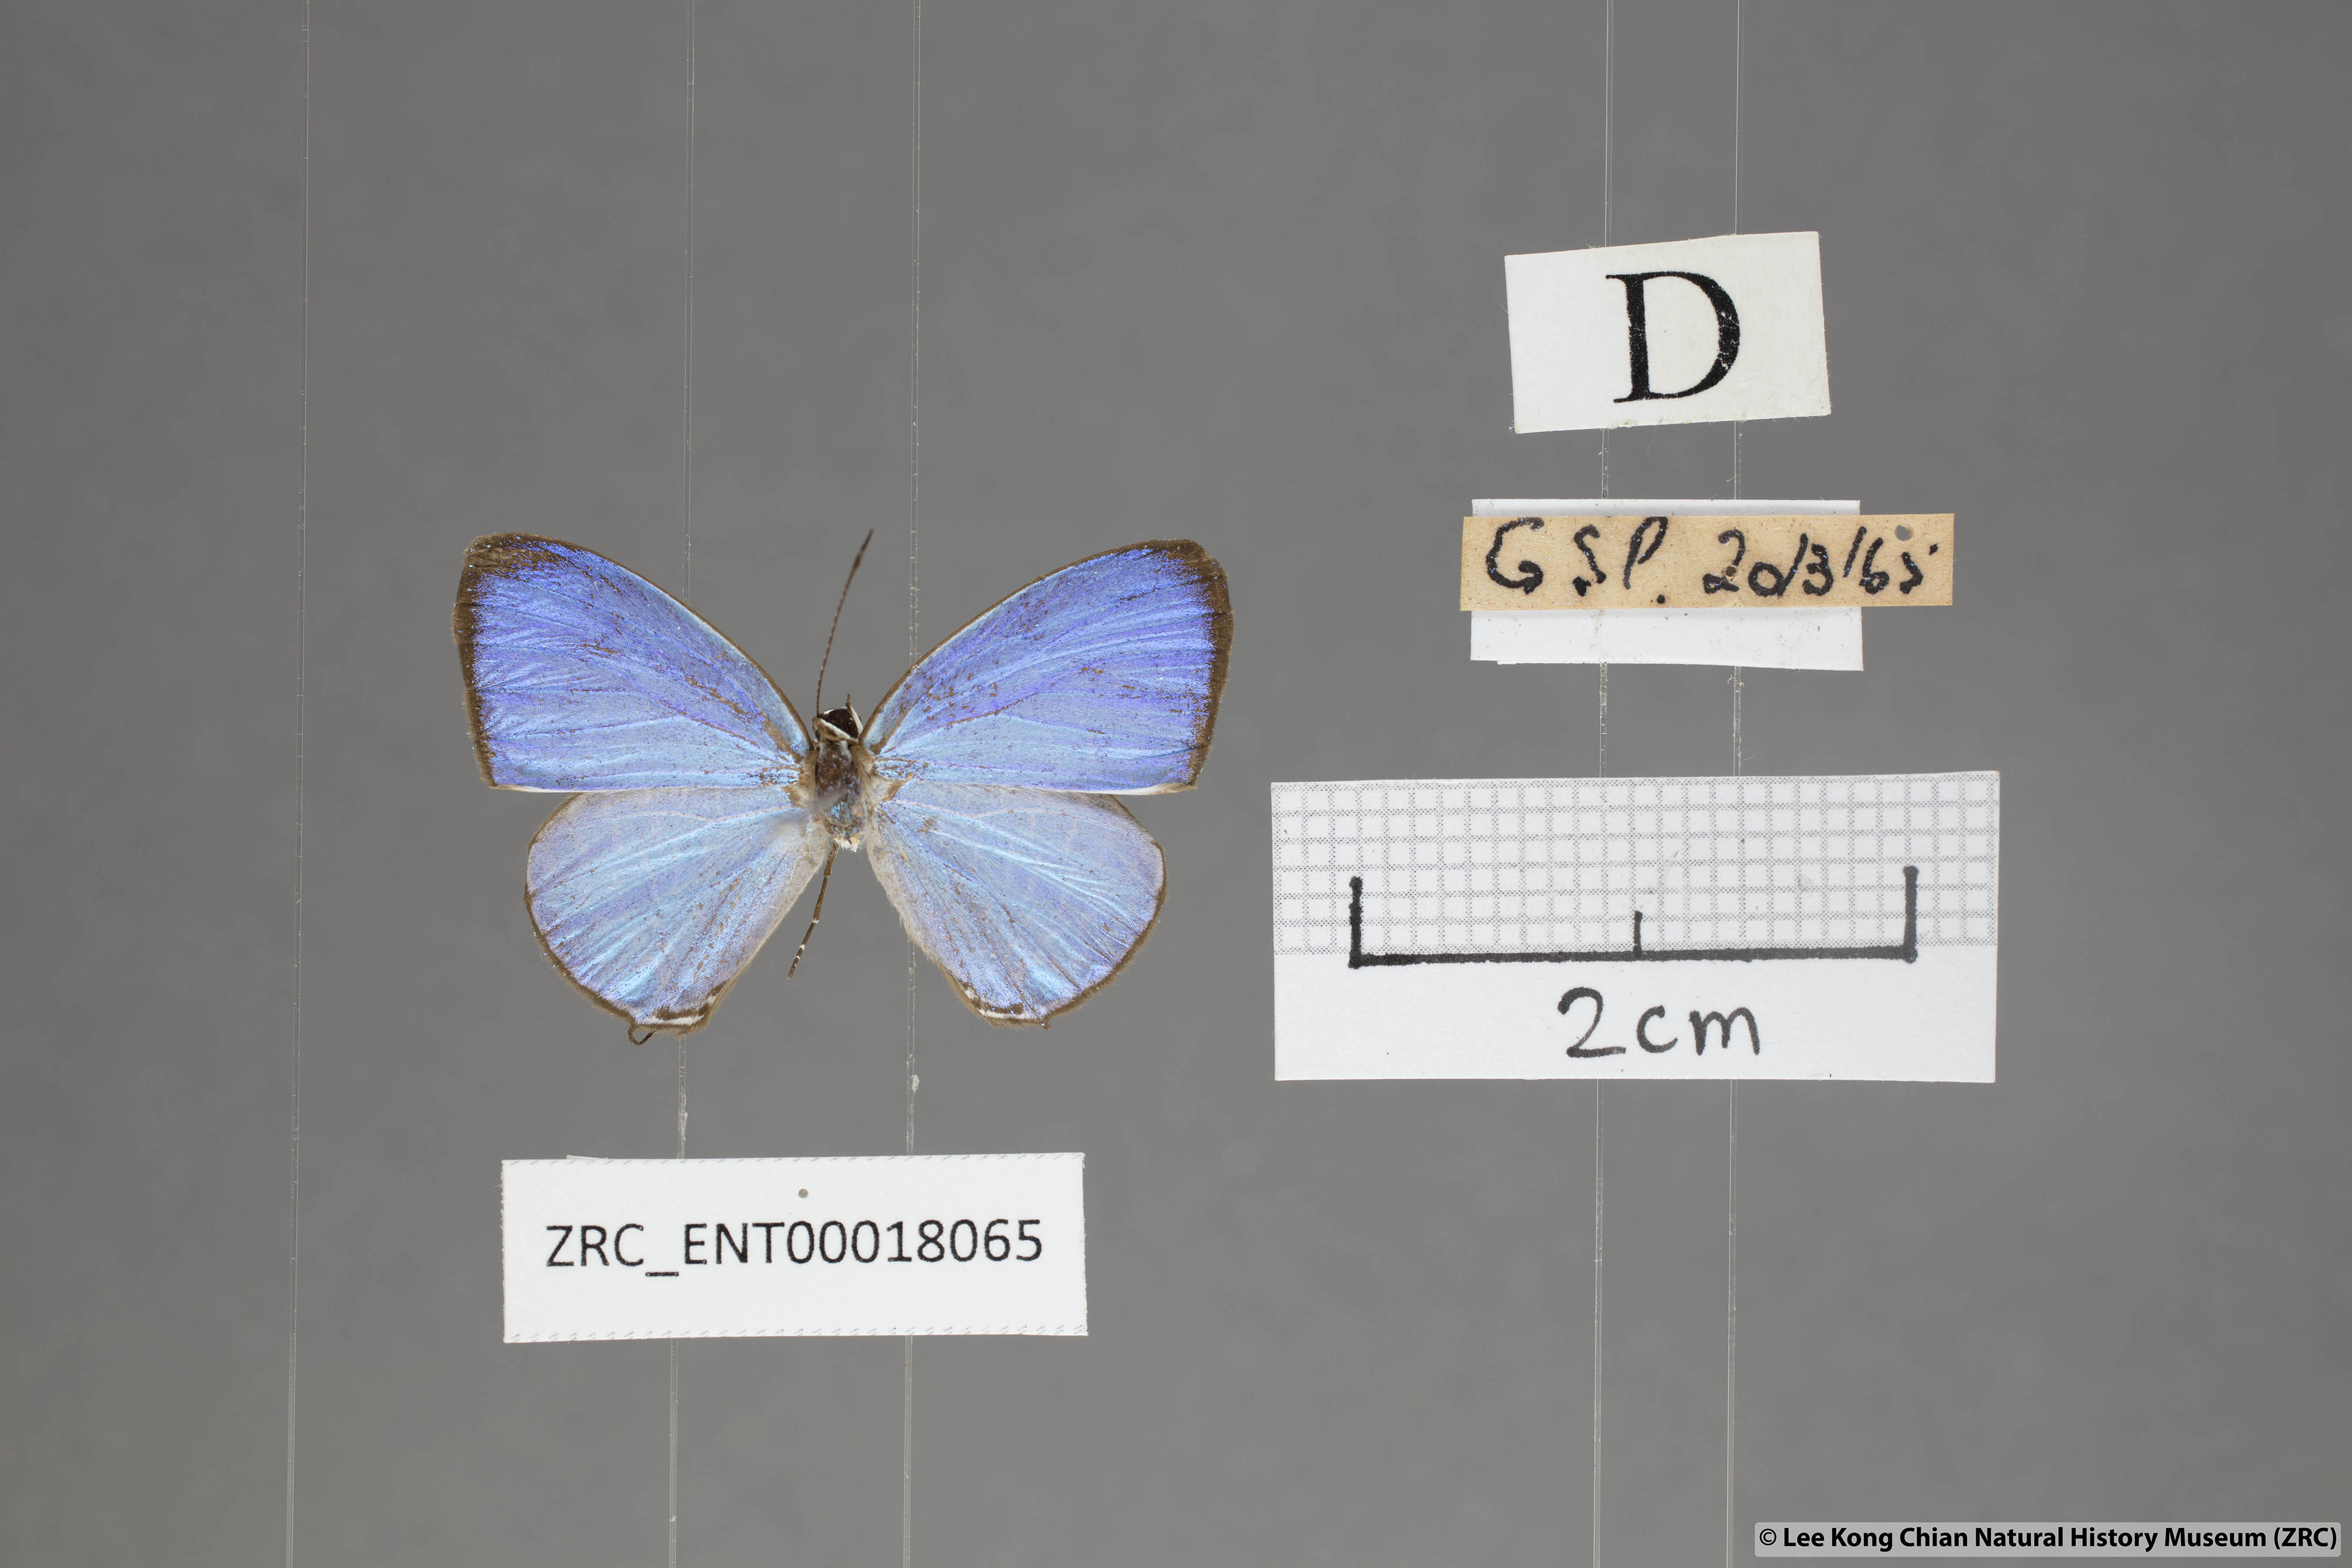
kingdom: Animalia
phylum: Arthropoda
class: Insecta
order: Lepidoptera
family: Lycaenidae
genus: Jamides
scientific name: Jamides caerulea
